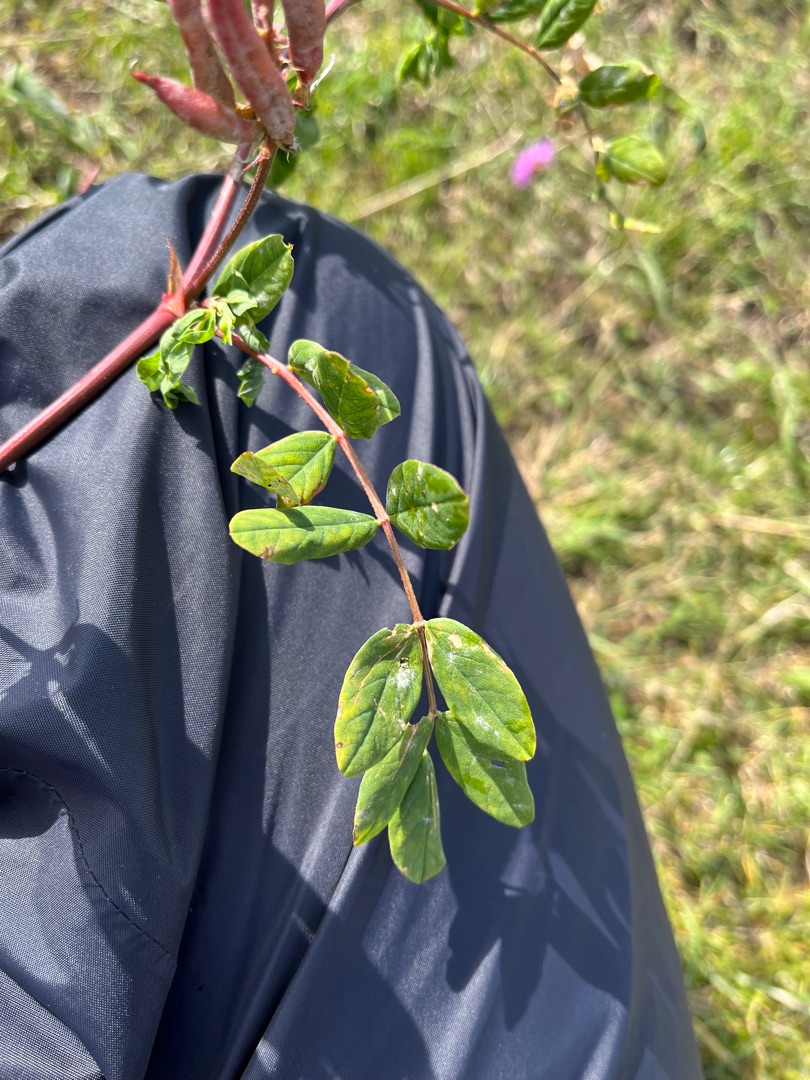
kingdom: Plantae
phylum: Tracheophyta
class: Magnoliopsida
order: Fabales
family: Fabaceae
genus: Astragalus
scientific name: Astragalus glycyphyllos
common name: Sød astragel
